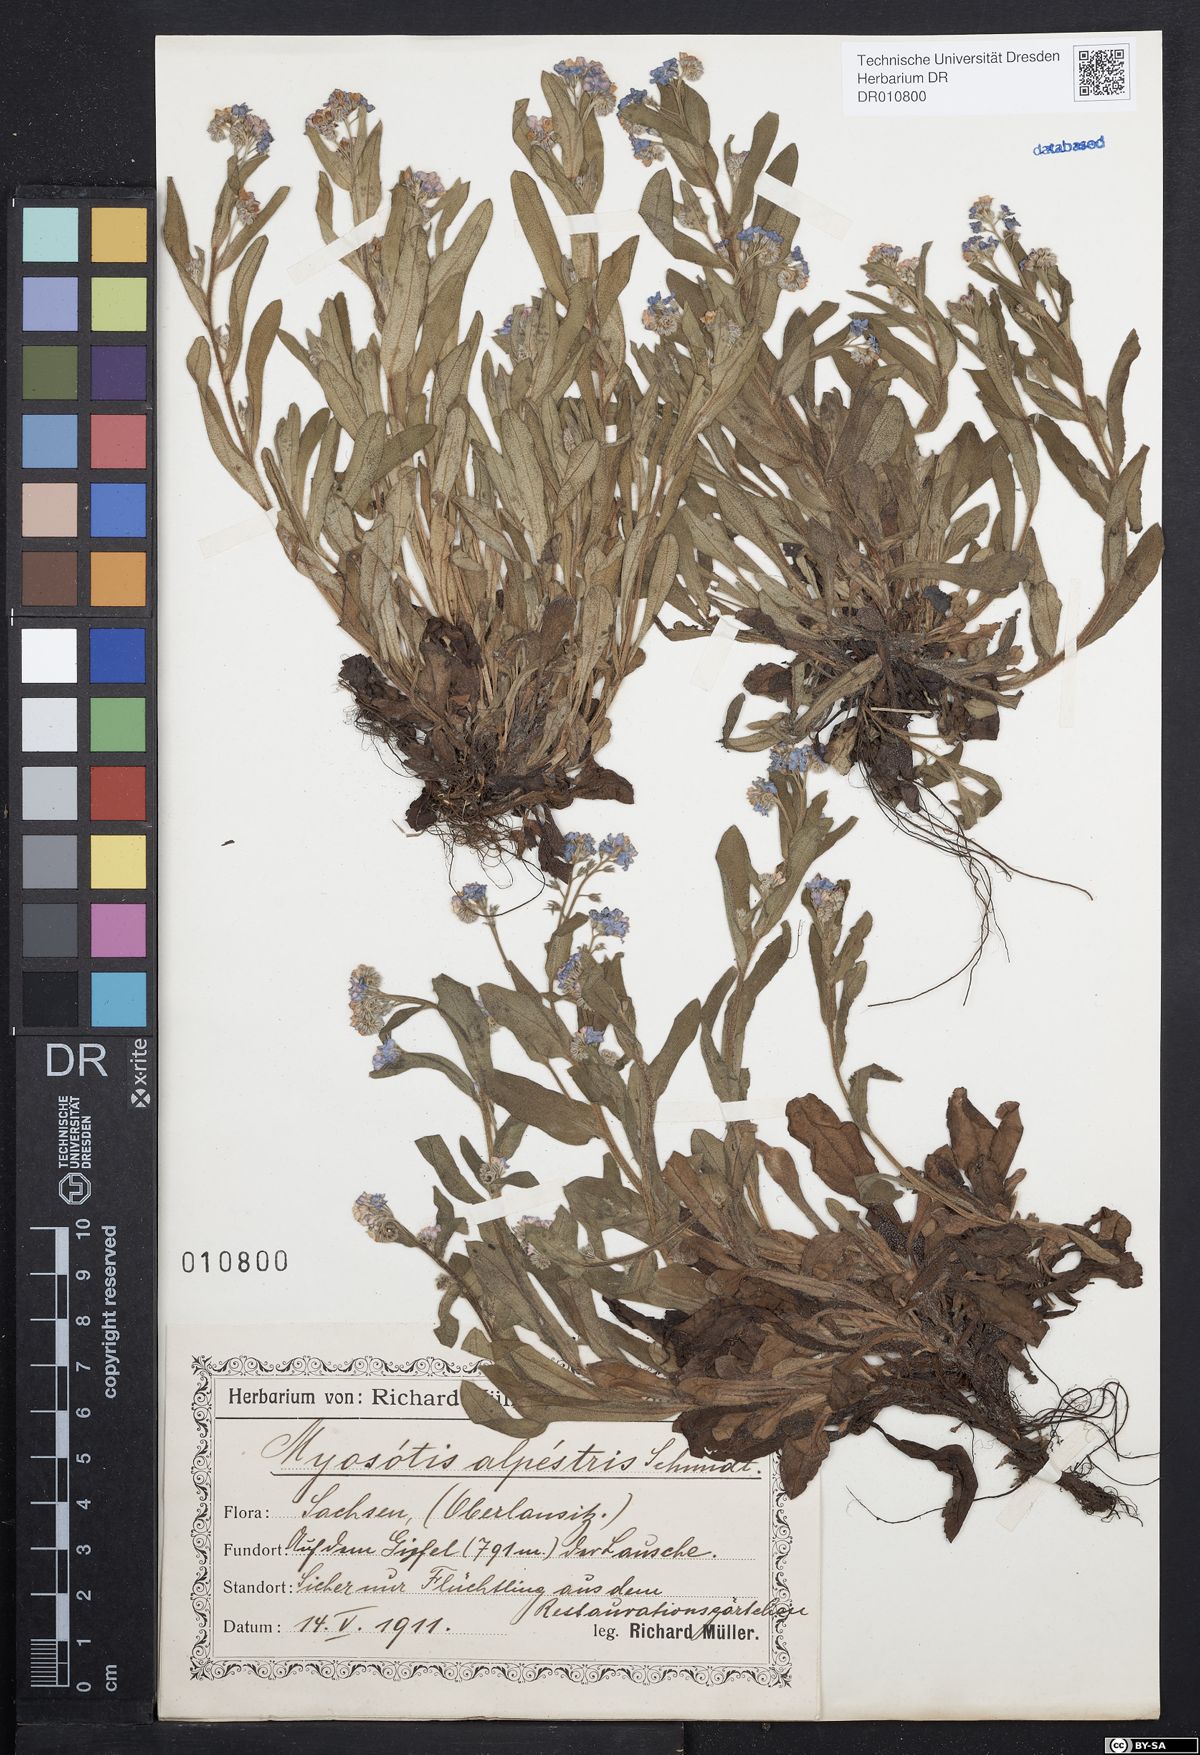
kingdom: Plantae
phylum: Tracheophyta
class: Magnoliopsida
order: Boraginales
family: Boraginaceae
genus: Myosotis
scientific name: Myosotis alpestris
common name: Alpine forget-me-not
